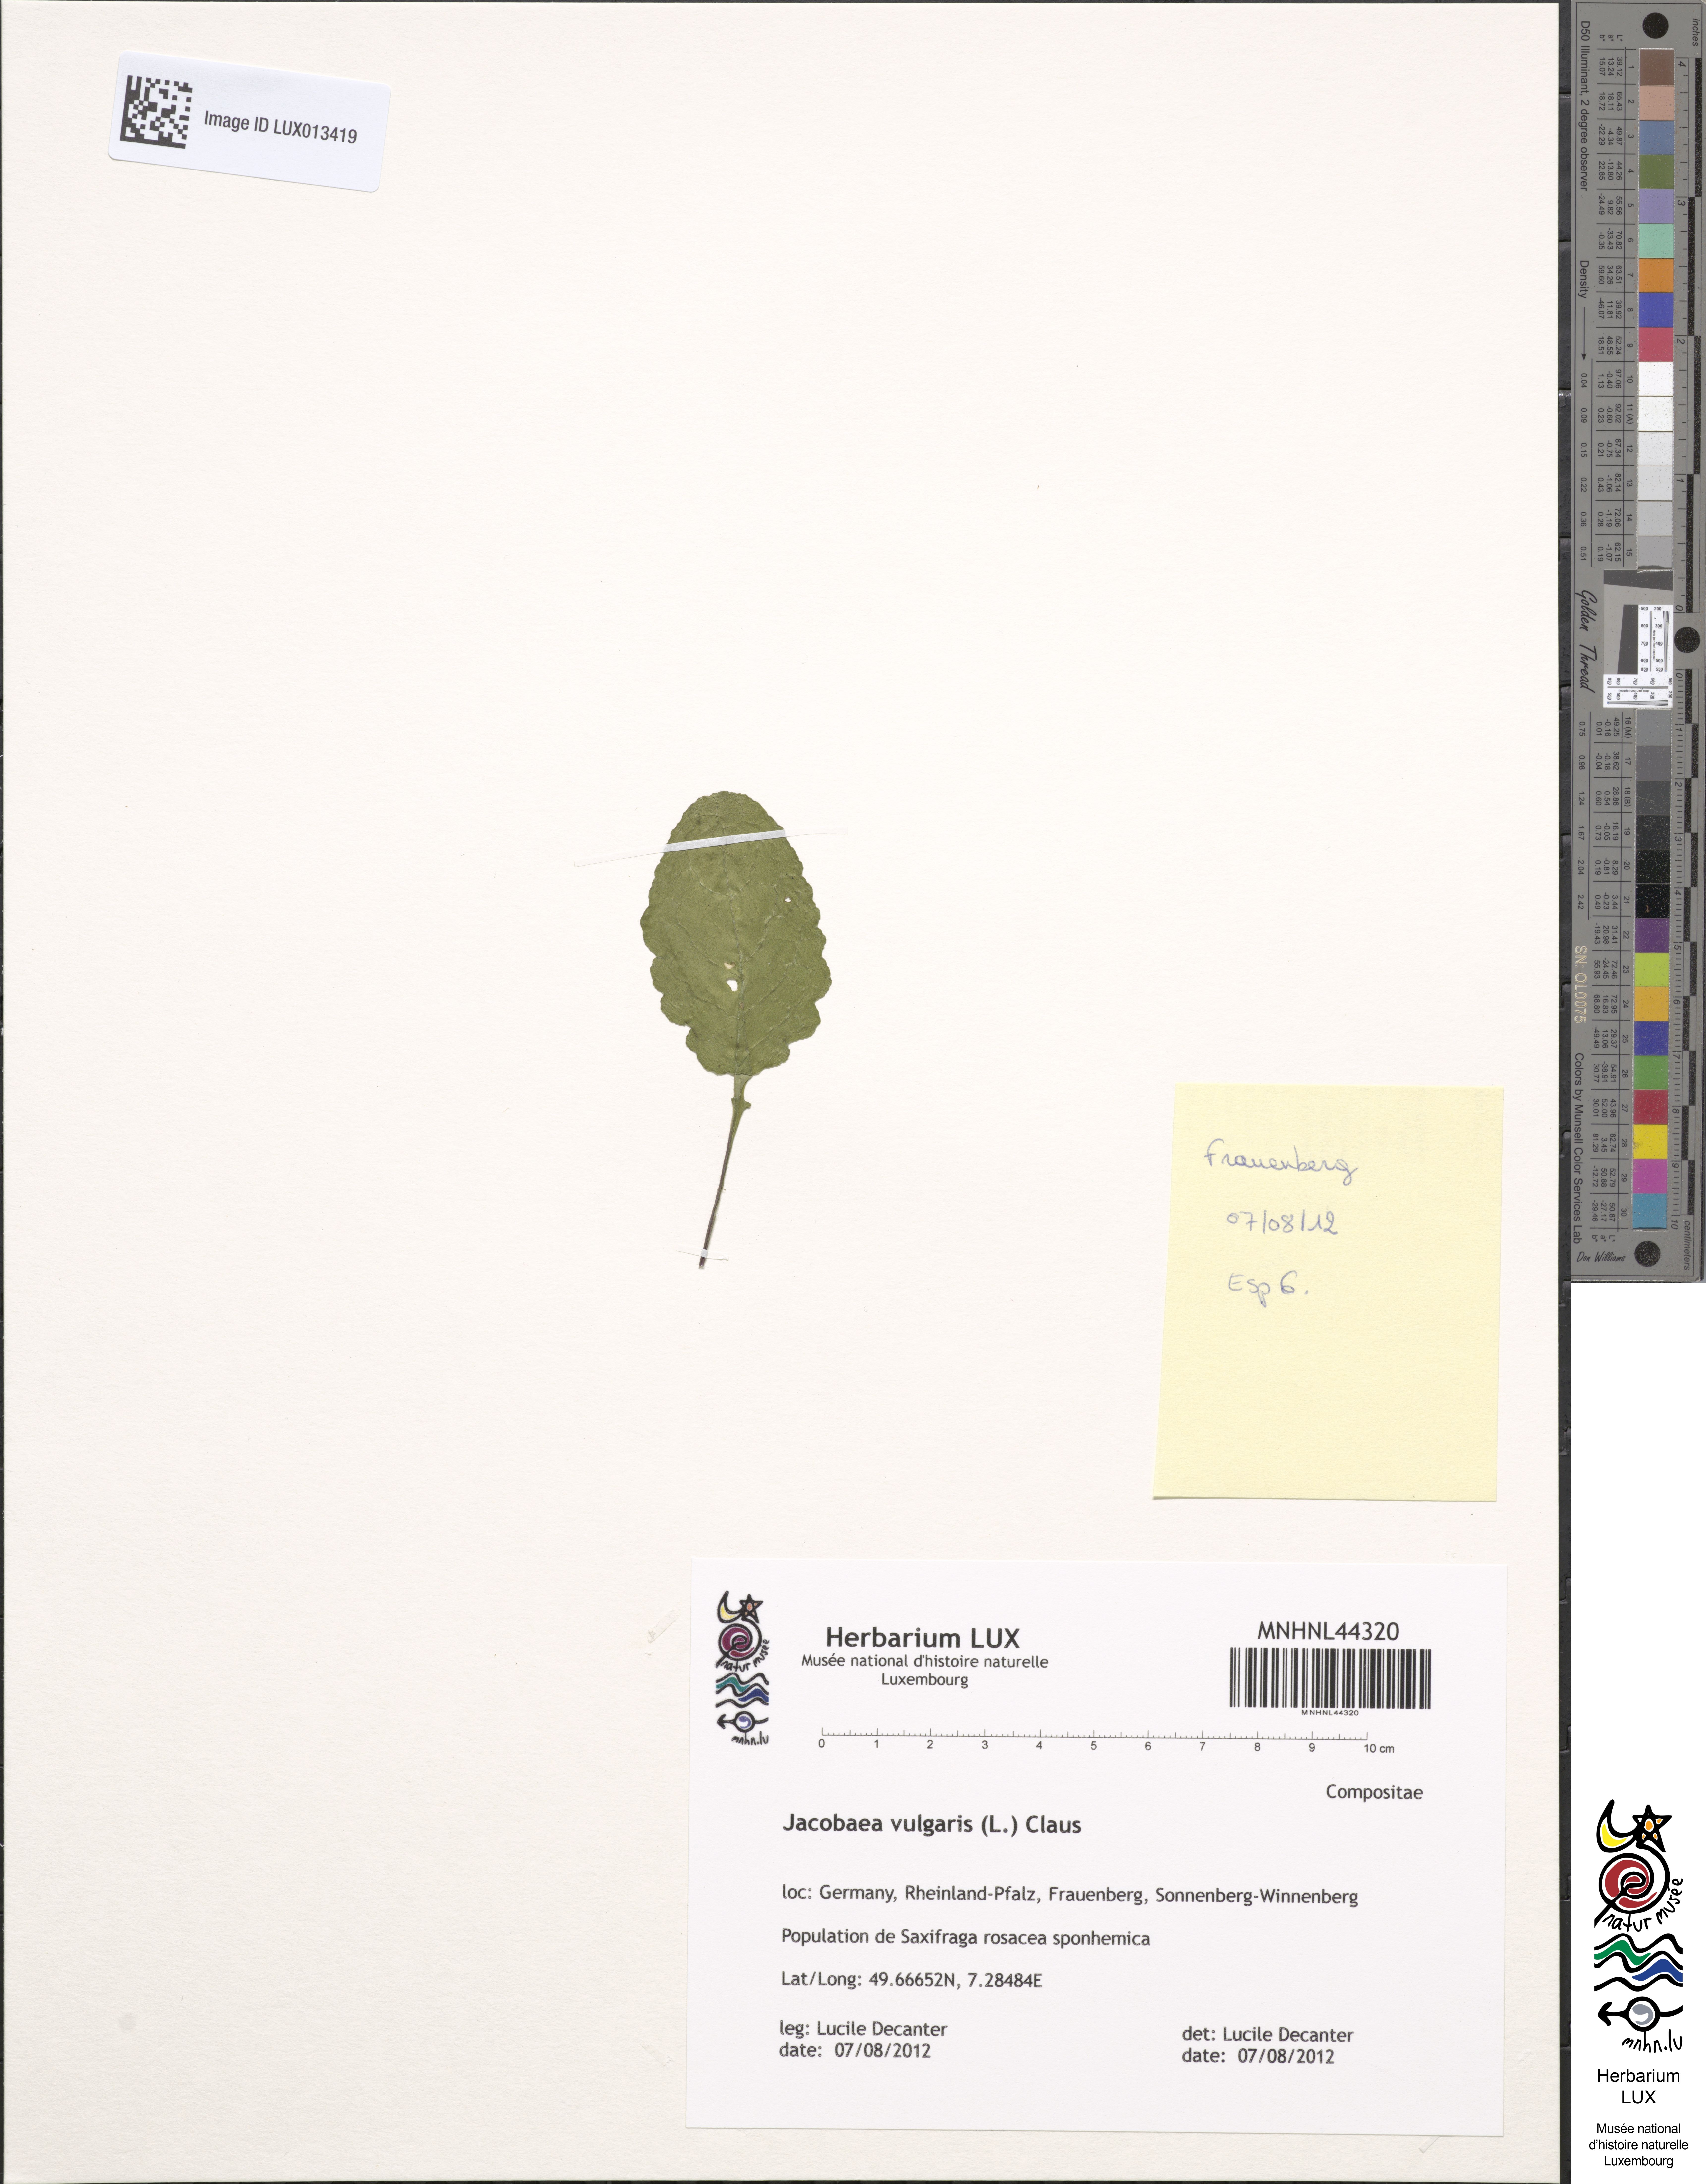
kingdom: Plantae
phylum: Tracheophyta
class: Magnoliopsida
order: Asterales
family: Asteraceae
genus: Senecio
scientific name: Senecio vulgaris
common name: Old-man-in-the-spring
